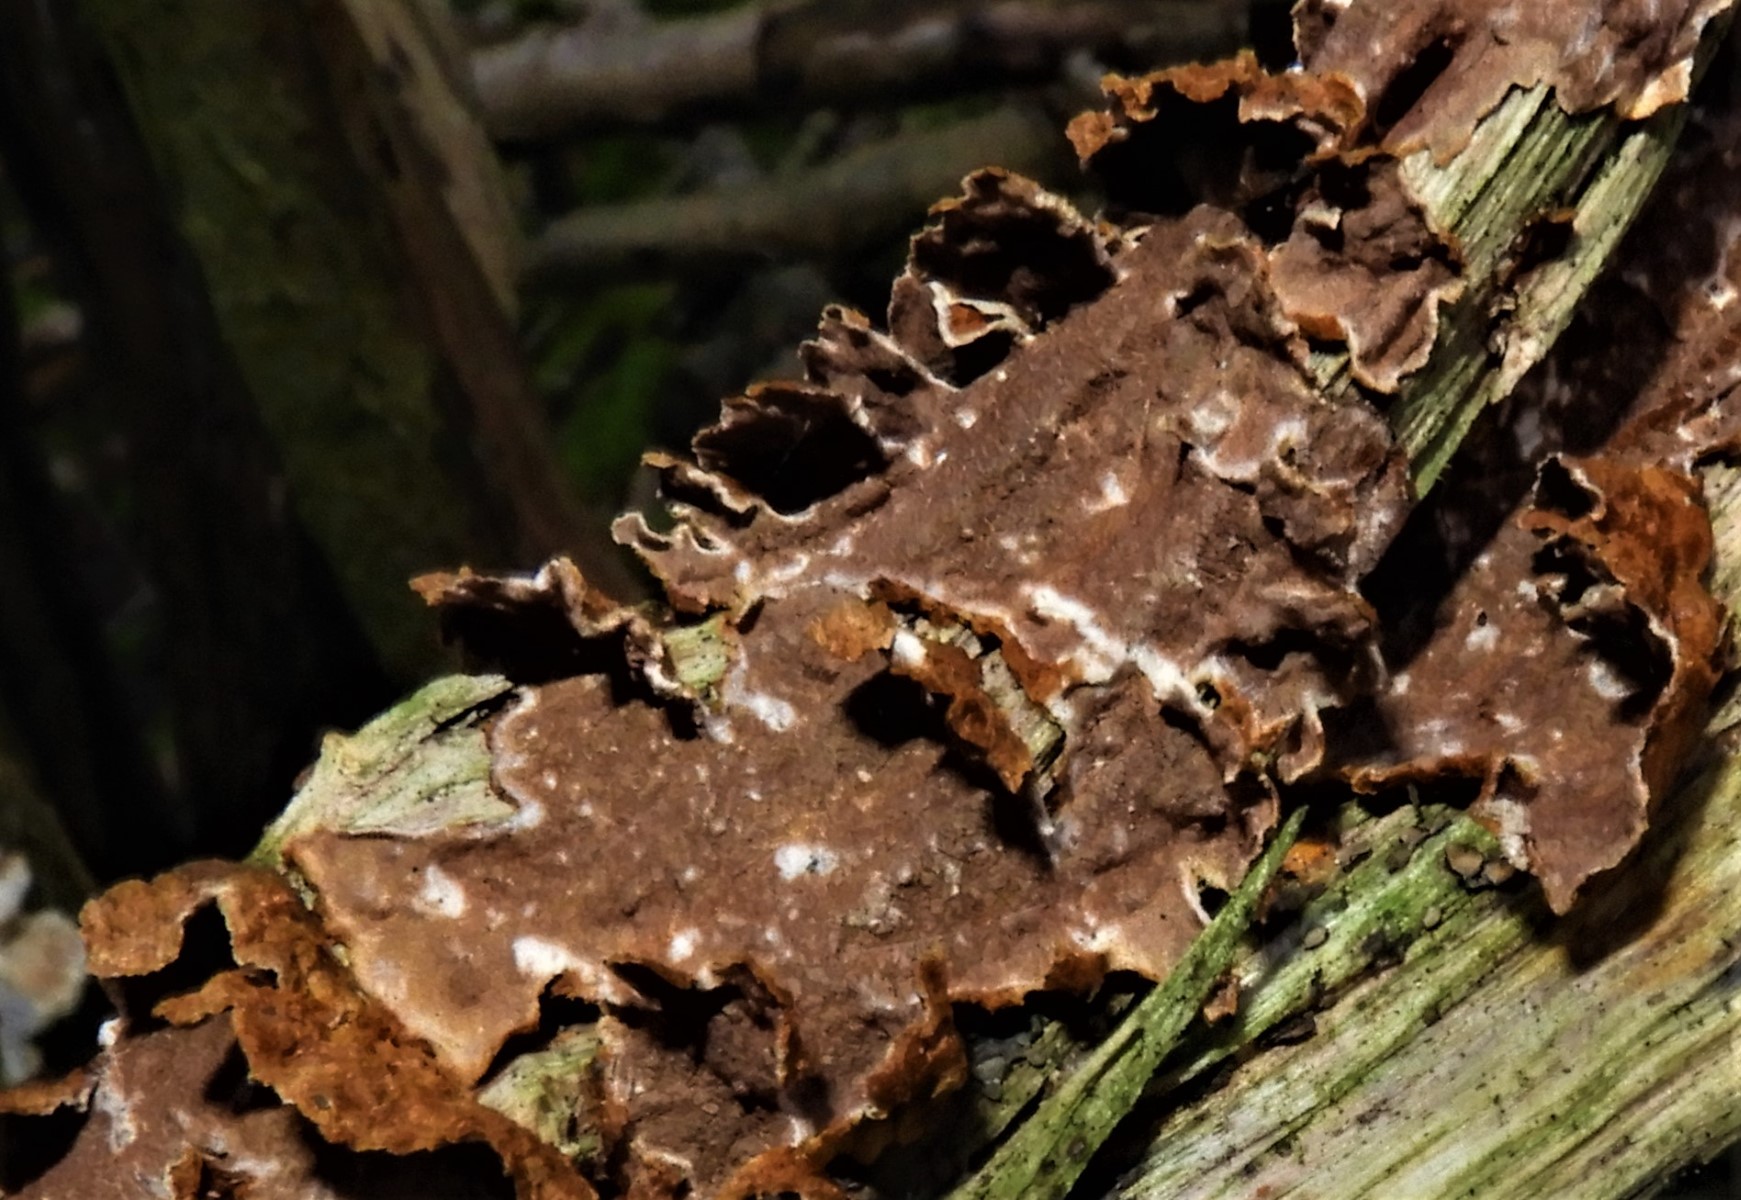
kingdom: Fungi
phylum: Basidiomycota
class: Agaricomycetes
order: Hymenochaetales
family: Hymenochaetaceae
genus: Hydnoporia
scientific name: Hydnoporia tabacina
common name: tobaksbrun ruslædersvamp
